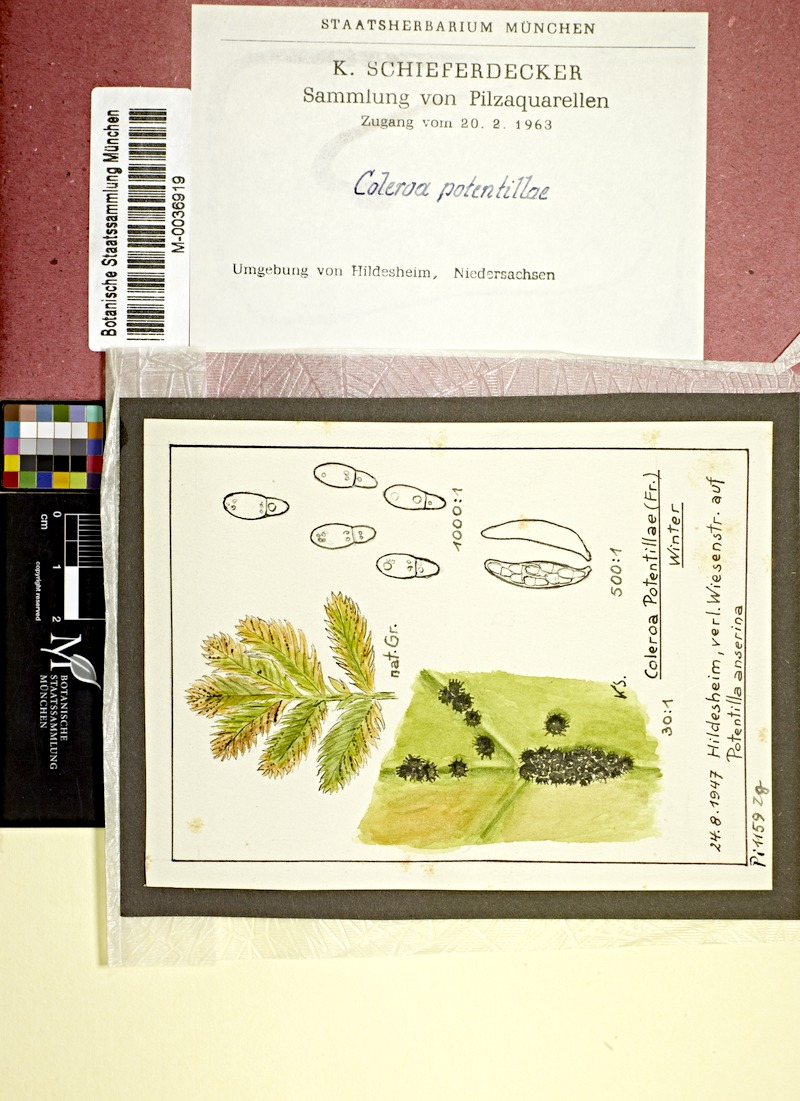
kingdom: Plantae
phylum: Tracheophyta
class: Magnoliopsida
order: Rosales
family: Rosaceae
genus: Argentina
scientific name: Argentina anserina
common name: Common silverweed
